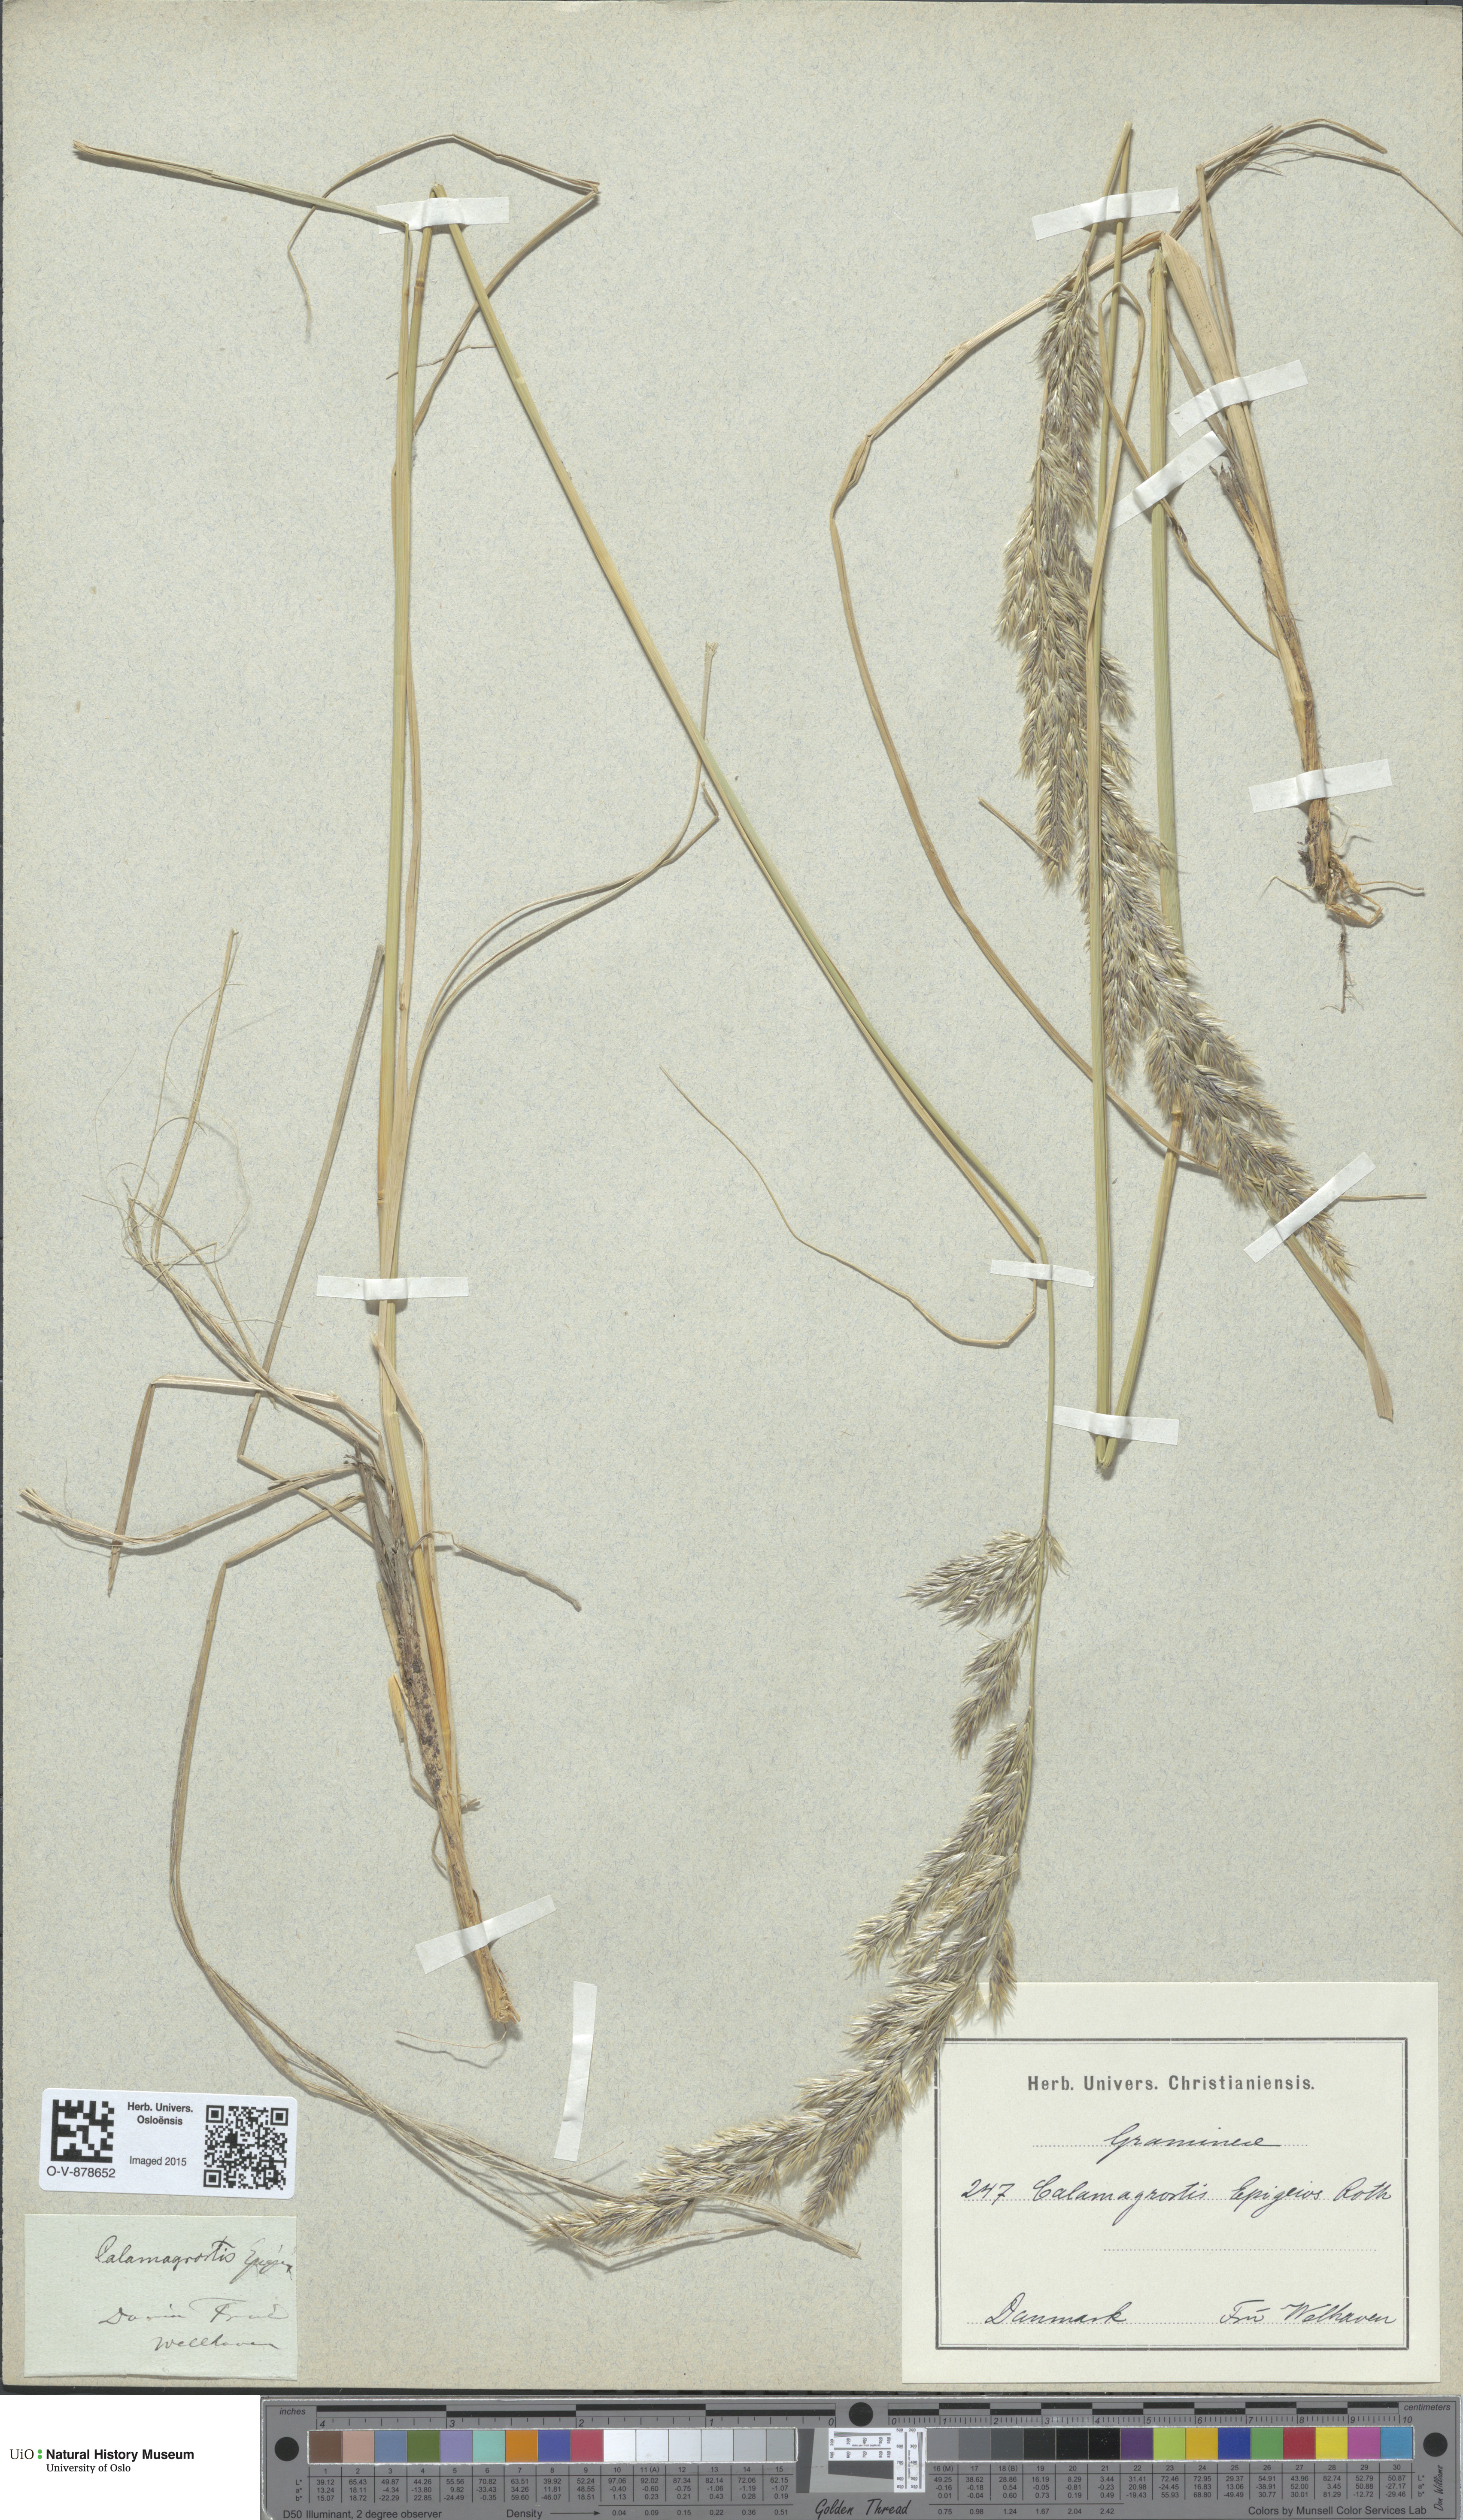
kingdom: Plantae
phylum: Tracheophyta
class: Liliopsida
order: Poales
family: Poaceae
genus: Calamagrostis
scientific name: Calamagrostis epigejos
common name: Wood small-reed
